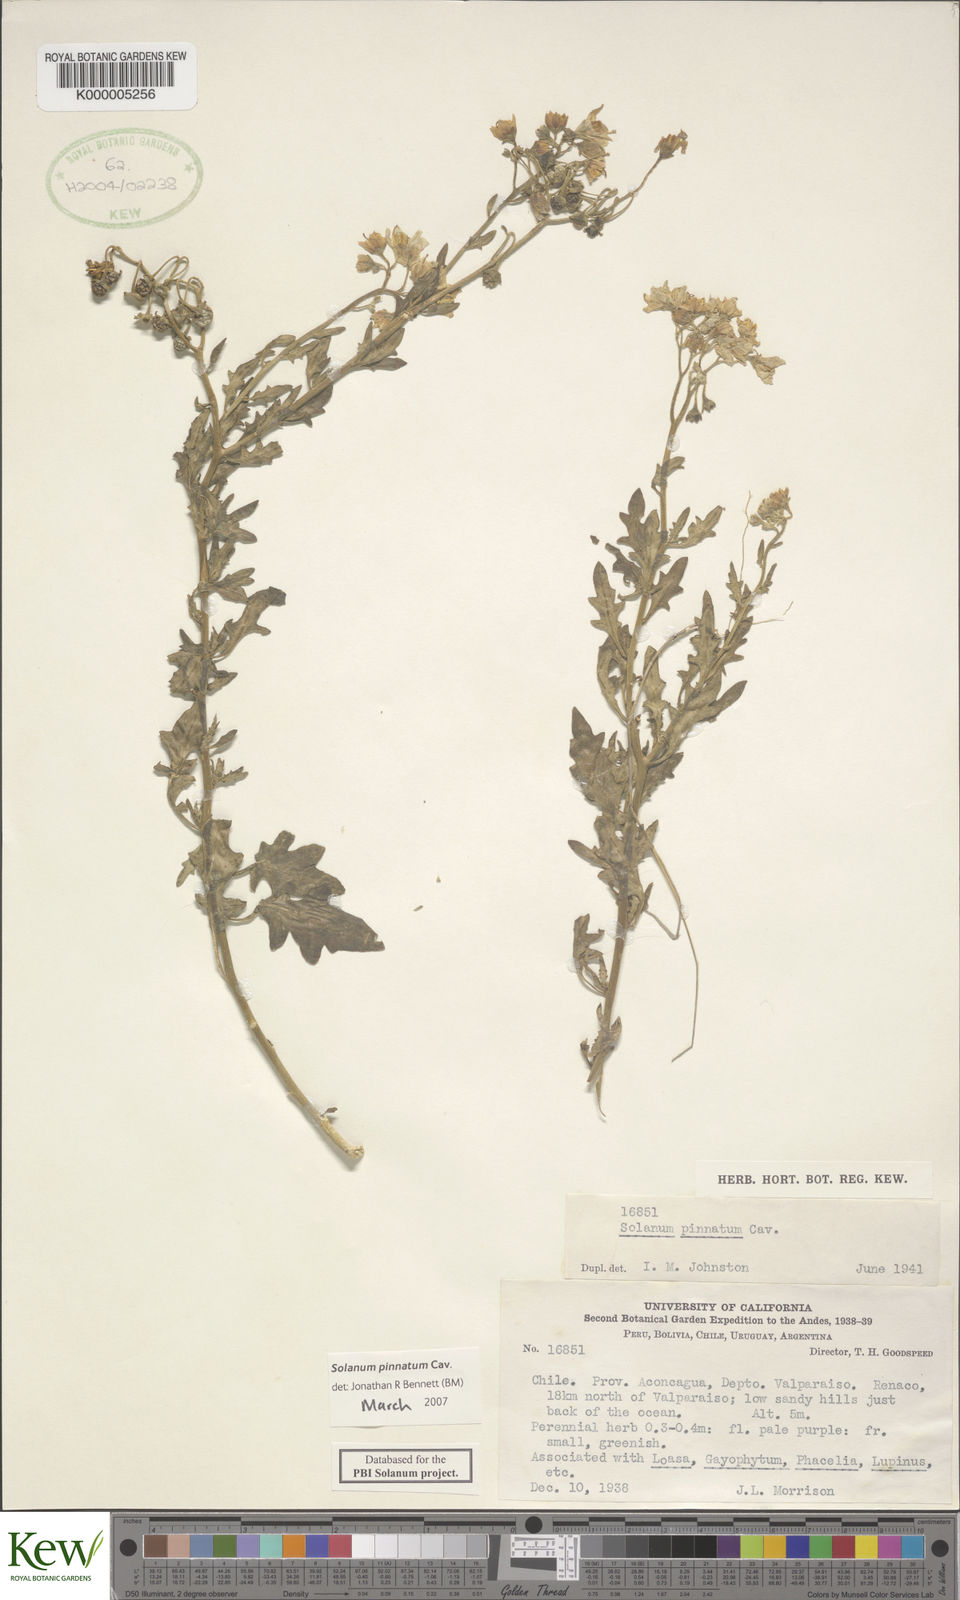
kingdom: Plantae
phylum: Tracheophyta
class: Magnoliopsida
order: Solanales
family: Solanaceae
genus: Solanum
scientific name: Solanum pinnatum
